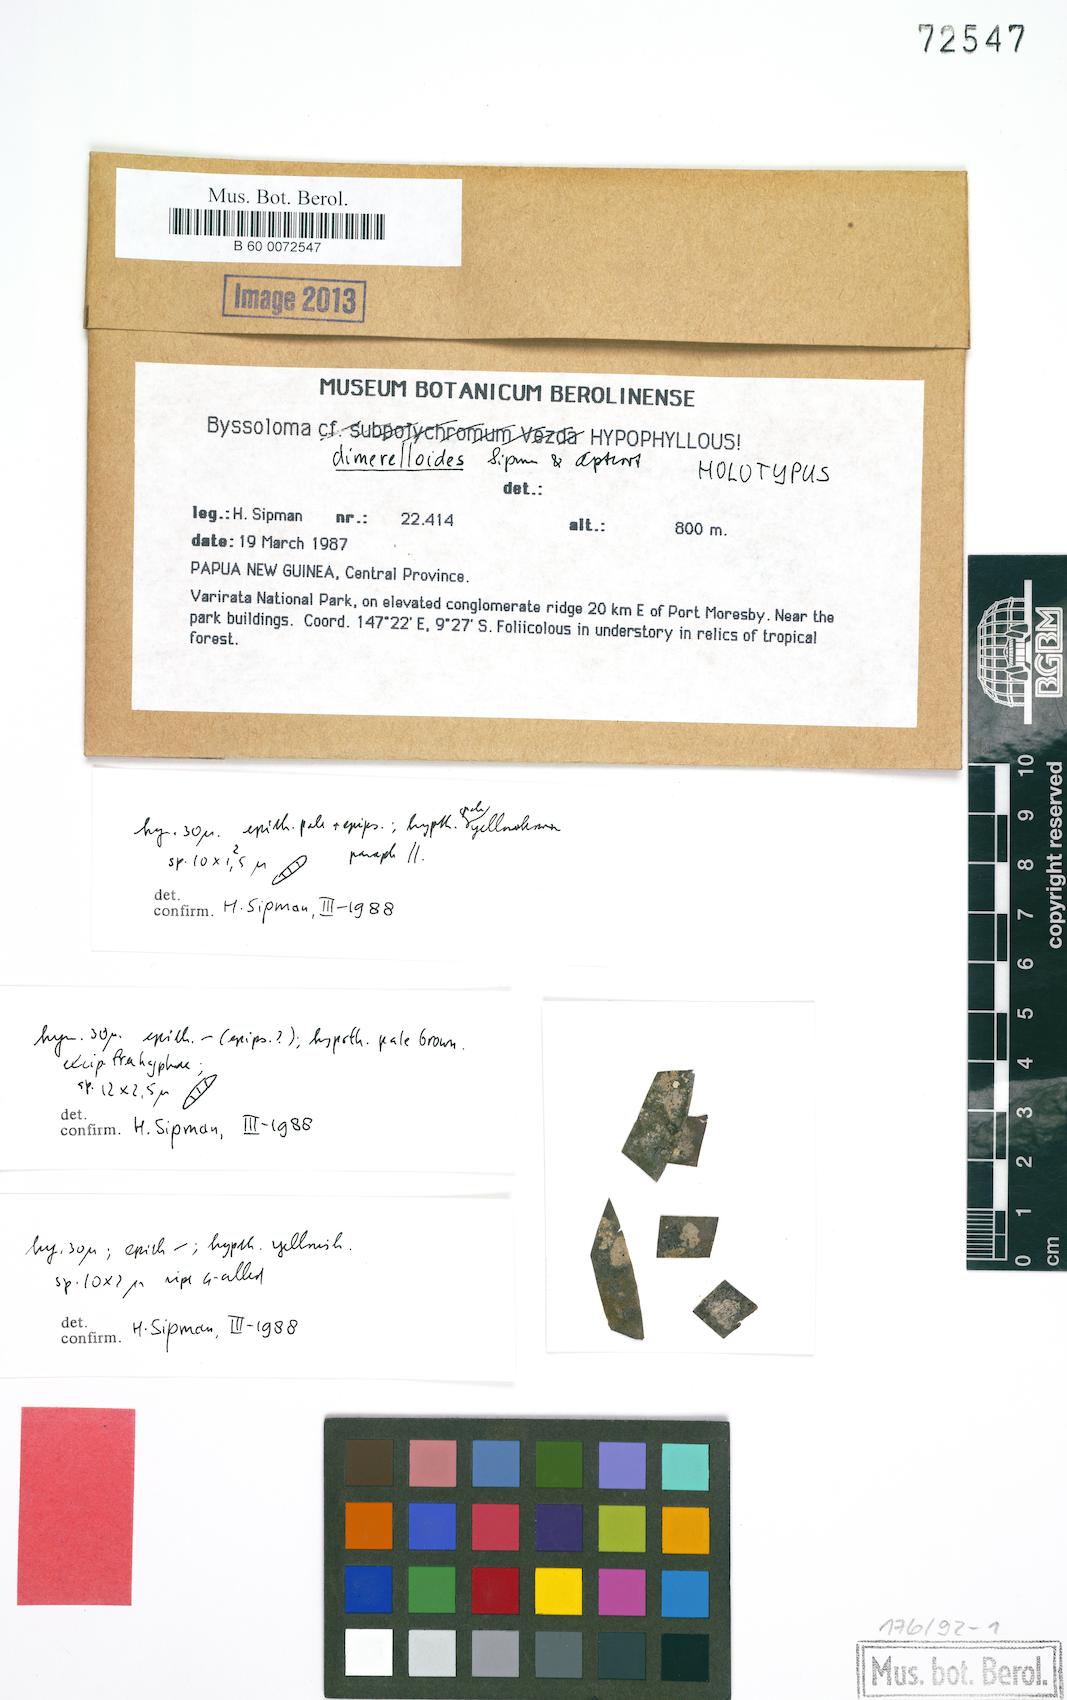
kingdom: Fungi
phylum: Ascomycota
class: Lecanoromycetes
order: Lecanorales
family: Byssolomataceae
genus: Byssoloma
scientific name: Byssoloma dimerelloides
